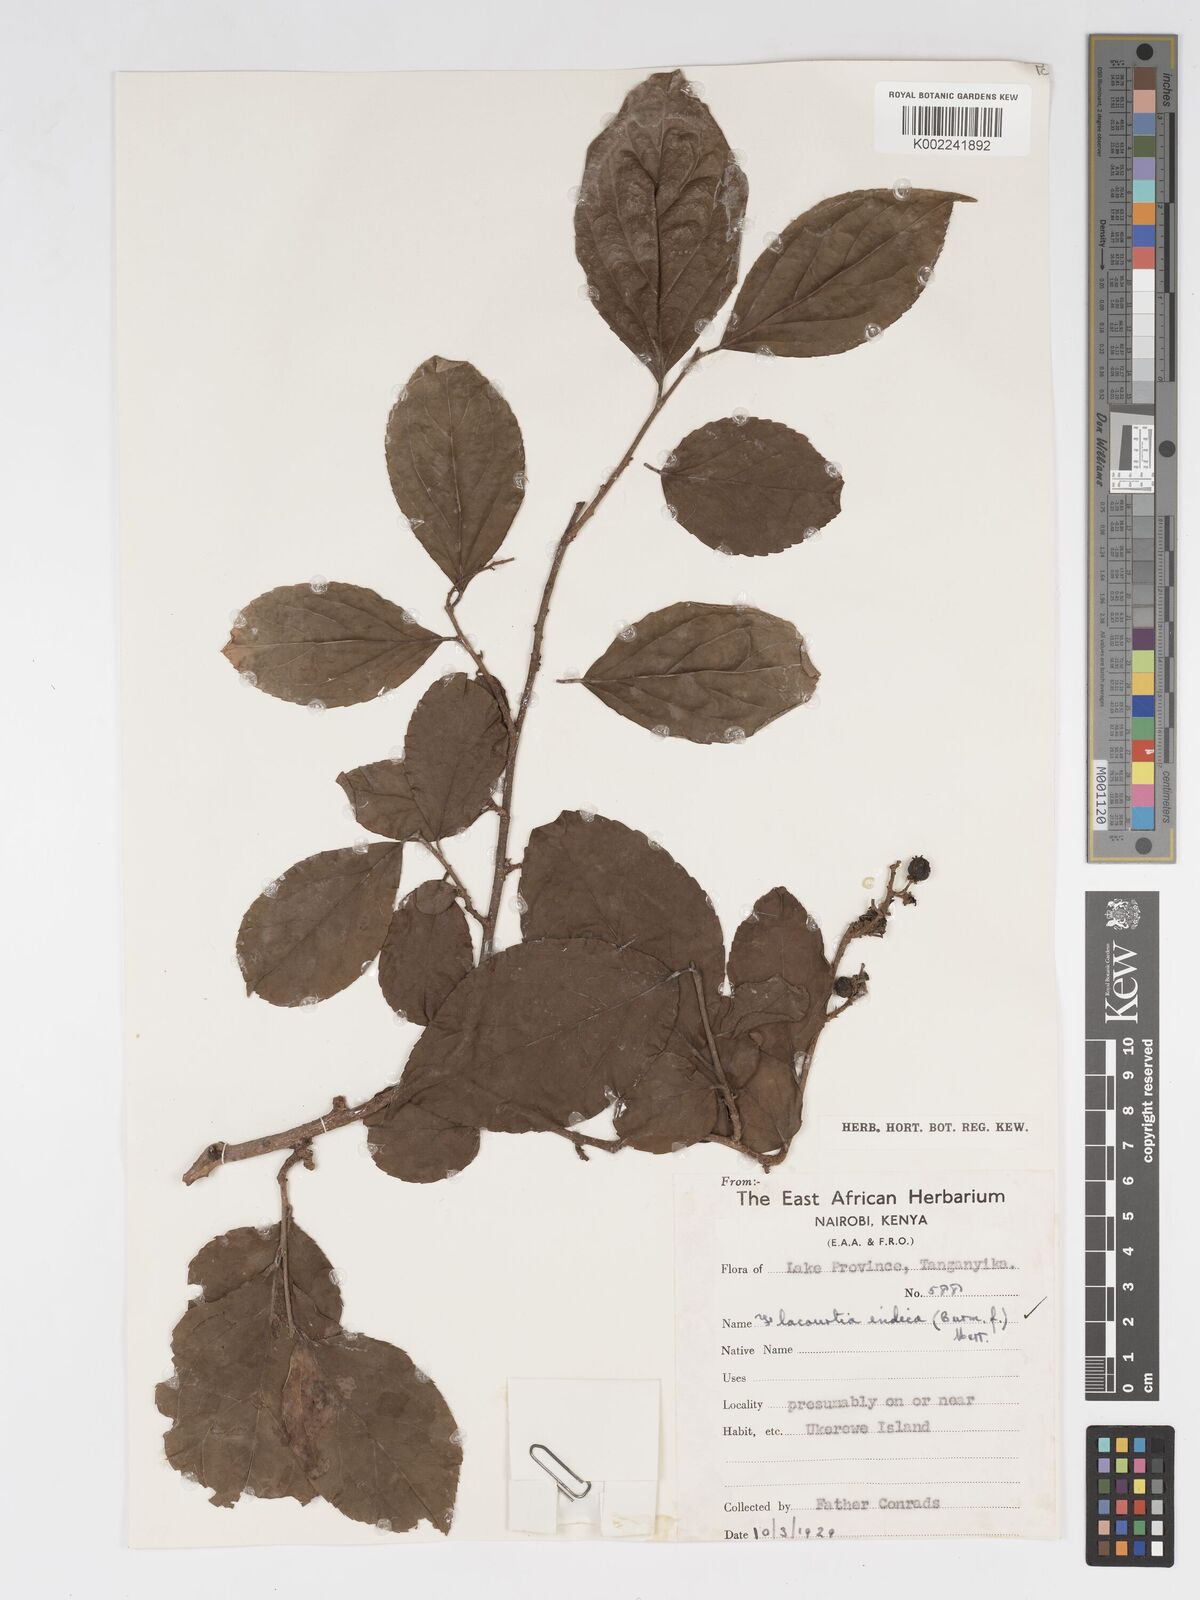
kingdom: Plantae
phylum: Tracheophyta
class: Magnoliopsida
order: Malpighiales
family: Salicaceae
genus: Flacourtia
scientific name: Flacourtia indica
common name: Governor's plum
